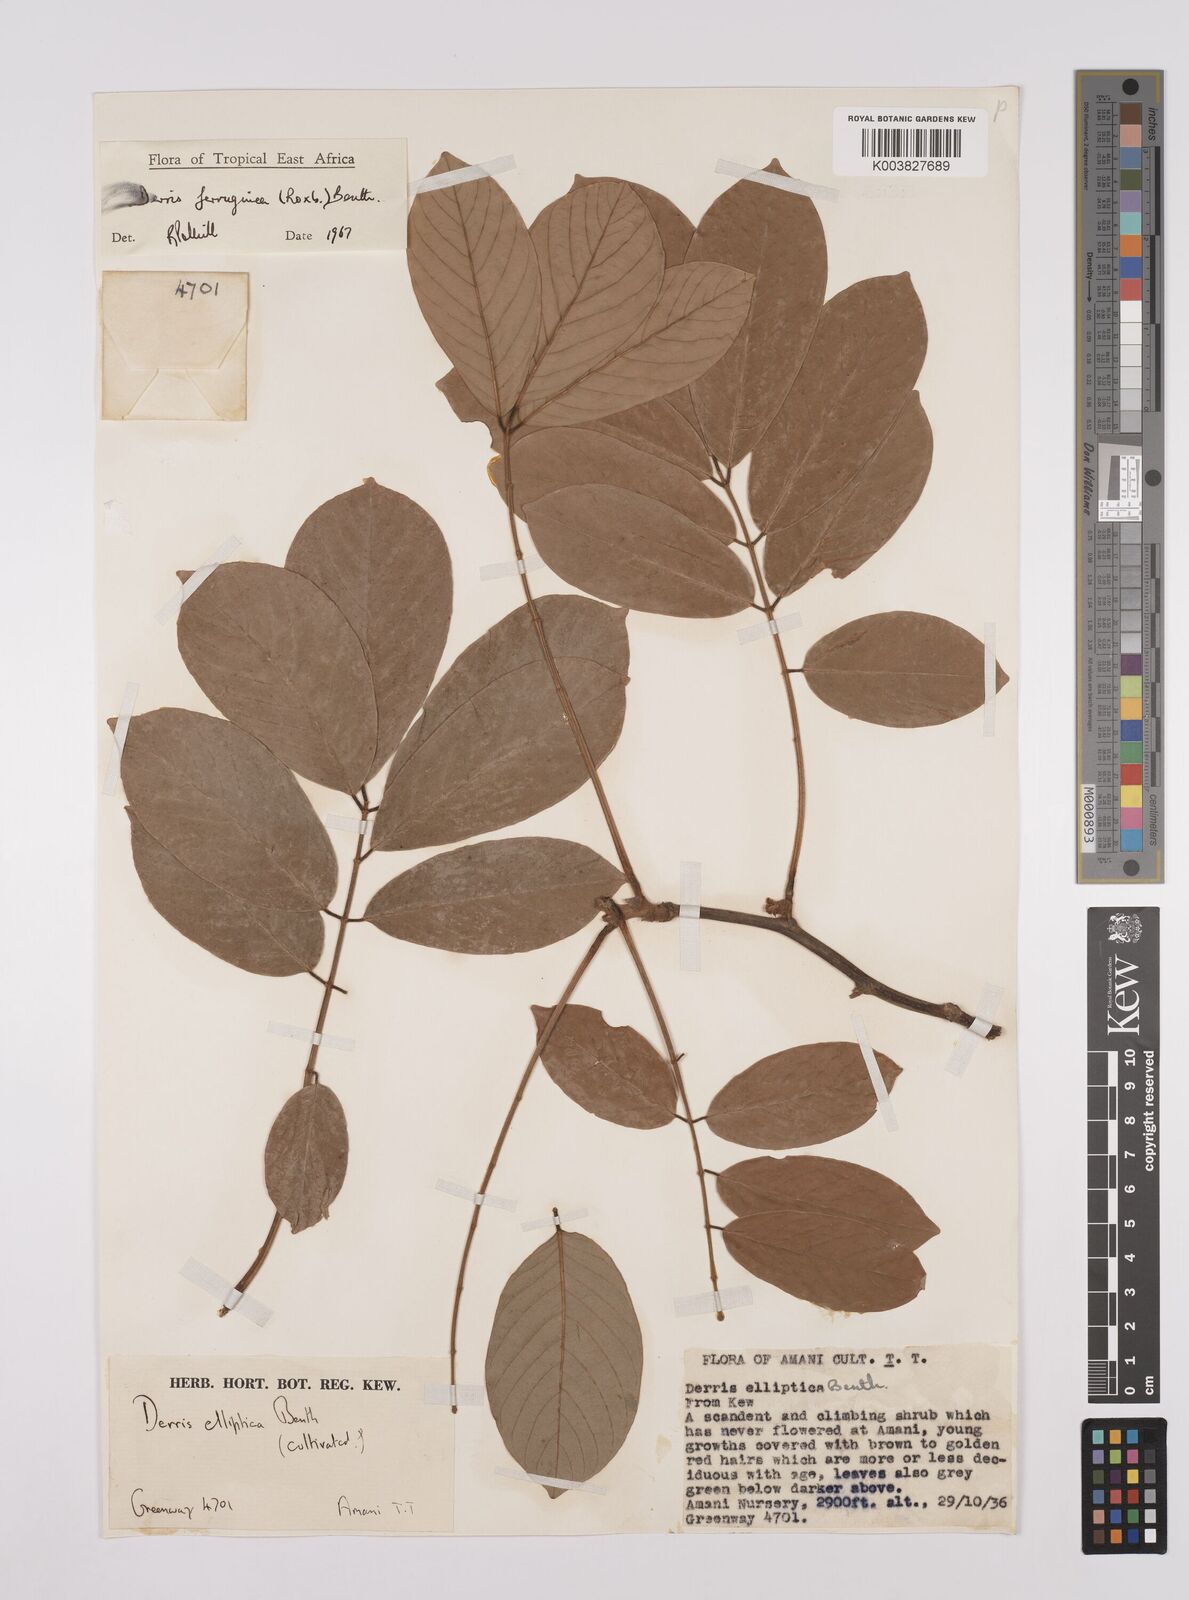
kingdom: Plantae
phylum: Tracheophyta
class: Magnoliopsida
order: Fabales
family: Fabaceae
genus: Derris
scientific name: Derris ferruginea
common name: Indian tubaroot
